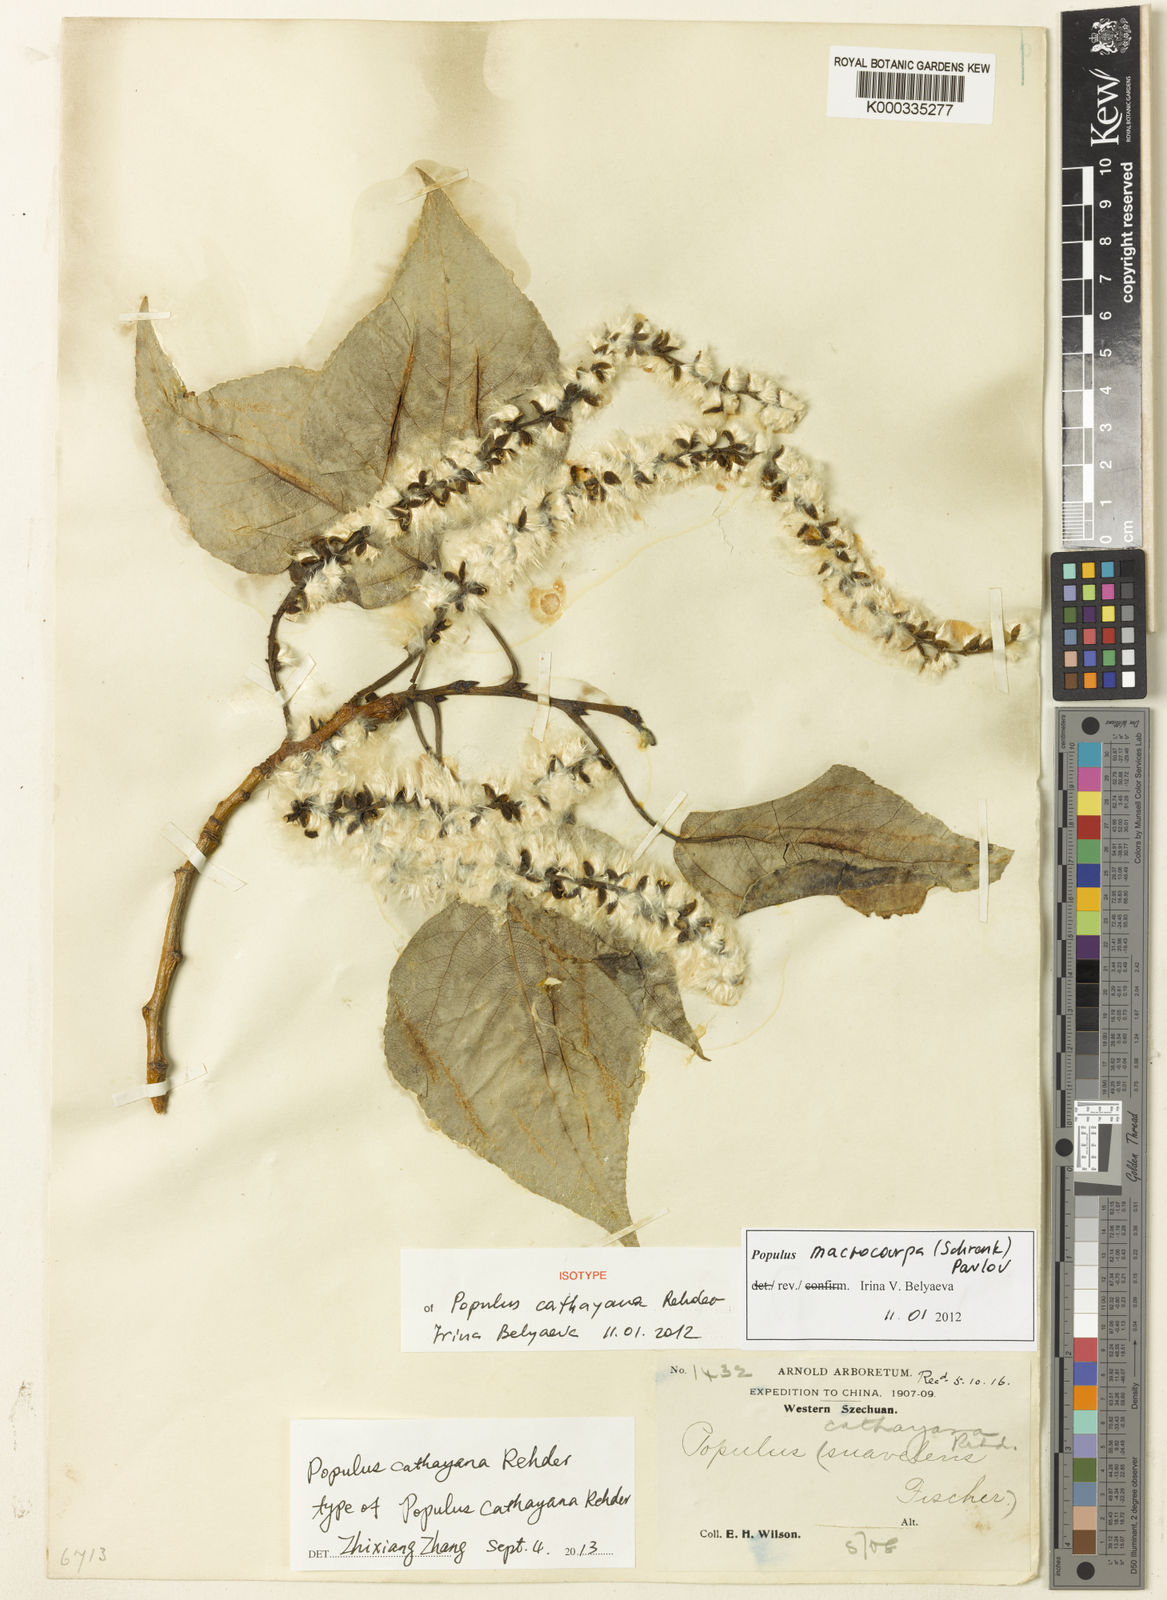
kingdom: Plantae
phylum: Tracheophyta
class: Magnoliopsida
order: Malpighiales
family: Salicaceae
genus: Populus
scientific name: Populus macrocarpa
